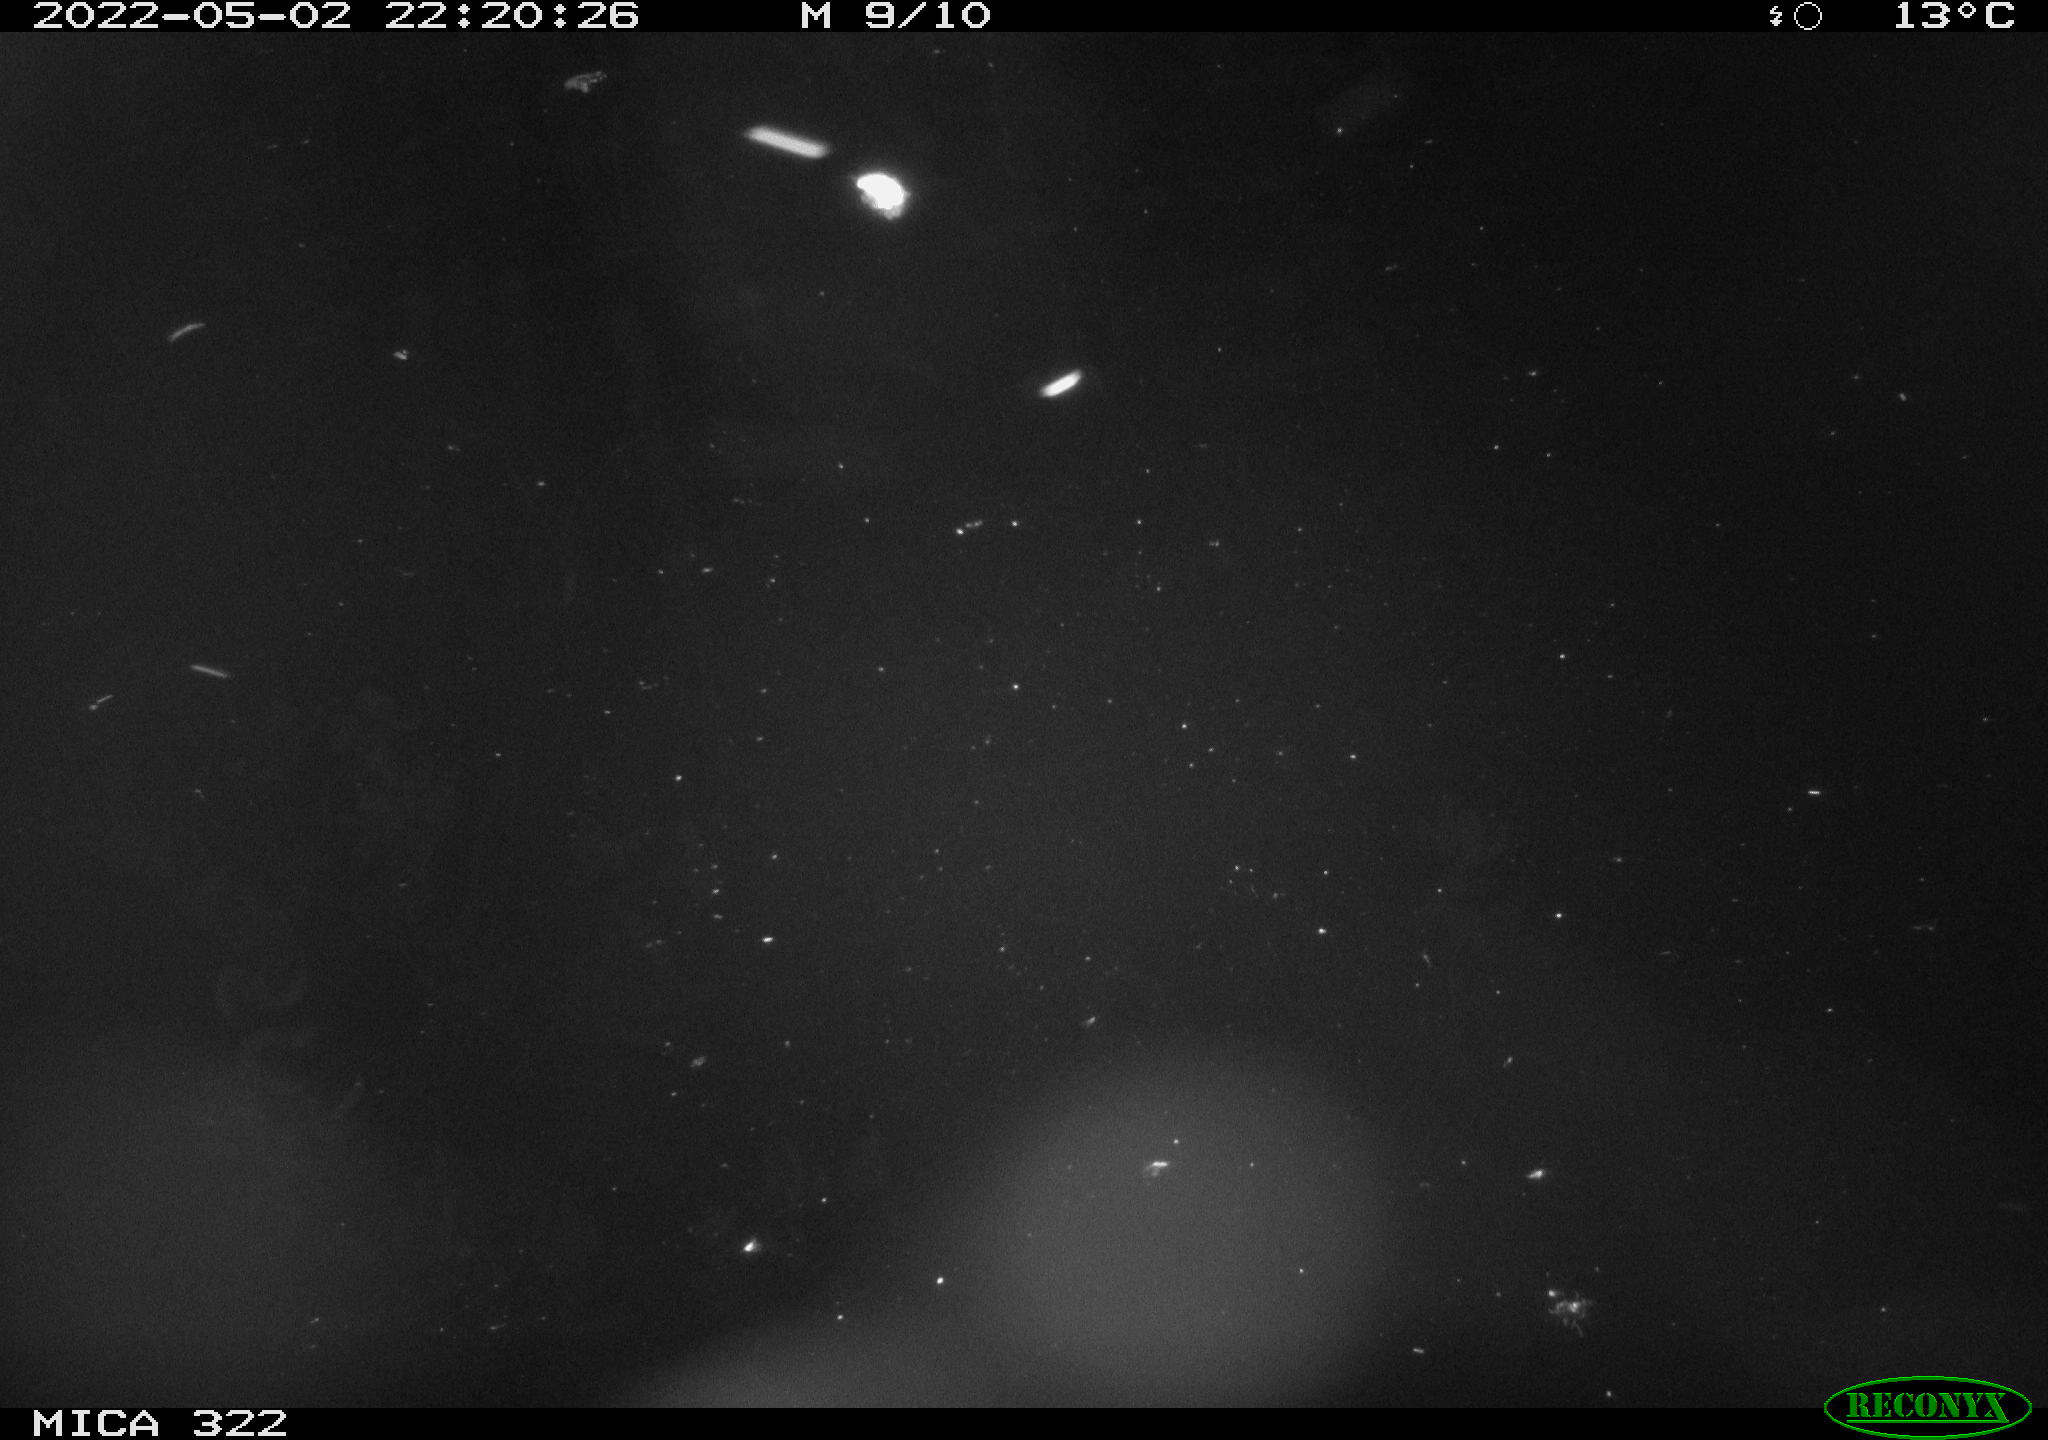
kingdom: Animalia
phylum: Chordata
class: Mammalia
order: Rodentia
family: Muridae
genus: Rattus
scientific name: Rattus norvegicus
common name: Brown rat
